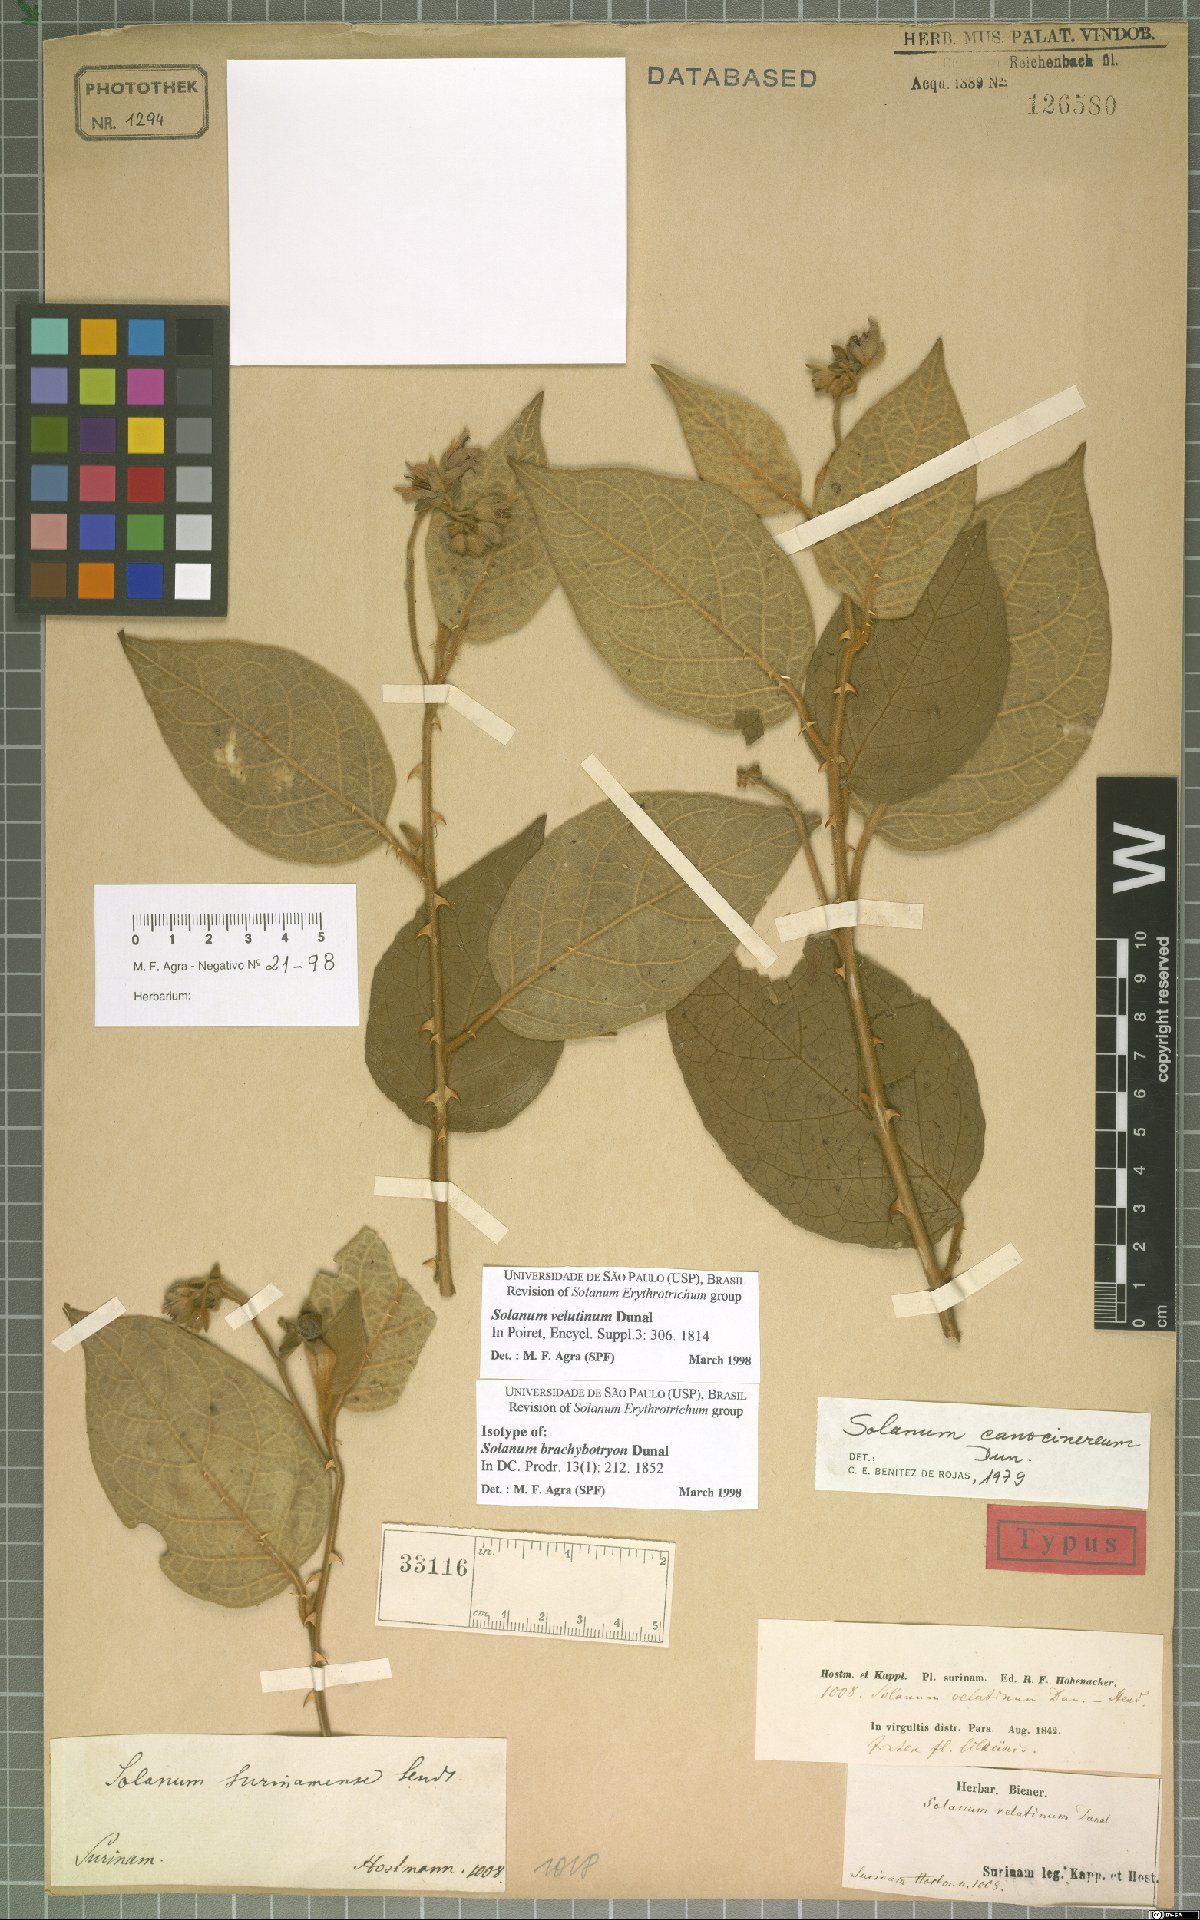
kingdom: Plantae
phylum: Tracheophyta
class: Magnoliopsida
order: Solanales
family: Solanaceae
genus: Solanum
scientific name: Solanum velutinum
